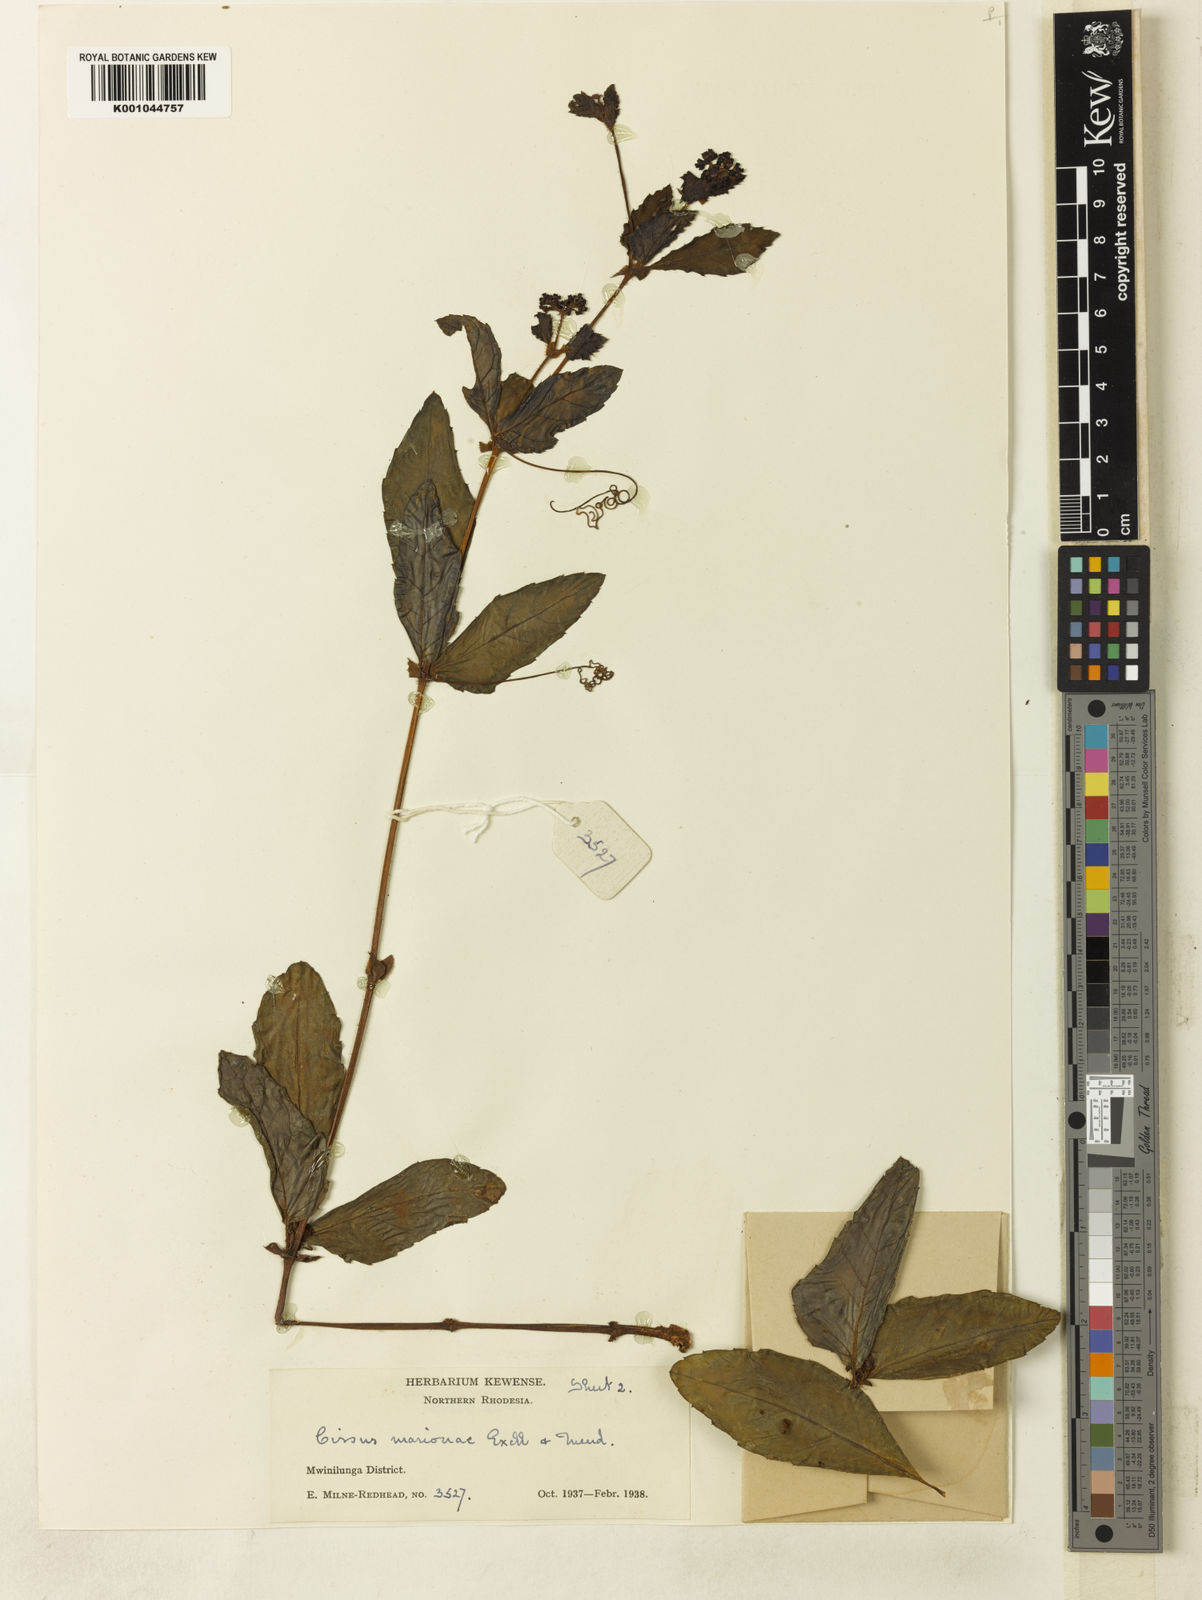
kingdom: Plantae
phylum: Tracheophyta
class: Magnoliopsida
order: Vitales
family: Vitaceae
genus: Cyphostemma
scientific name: Cyphostemma
